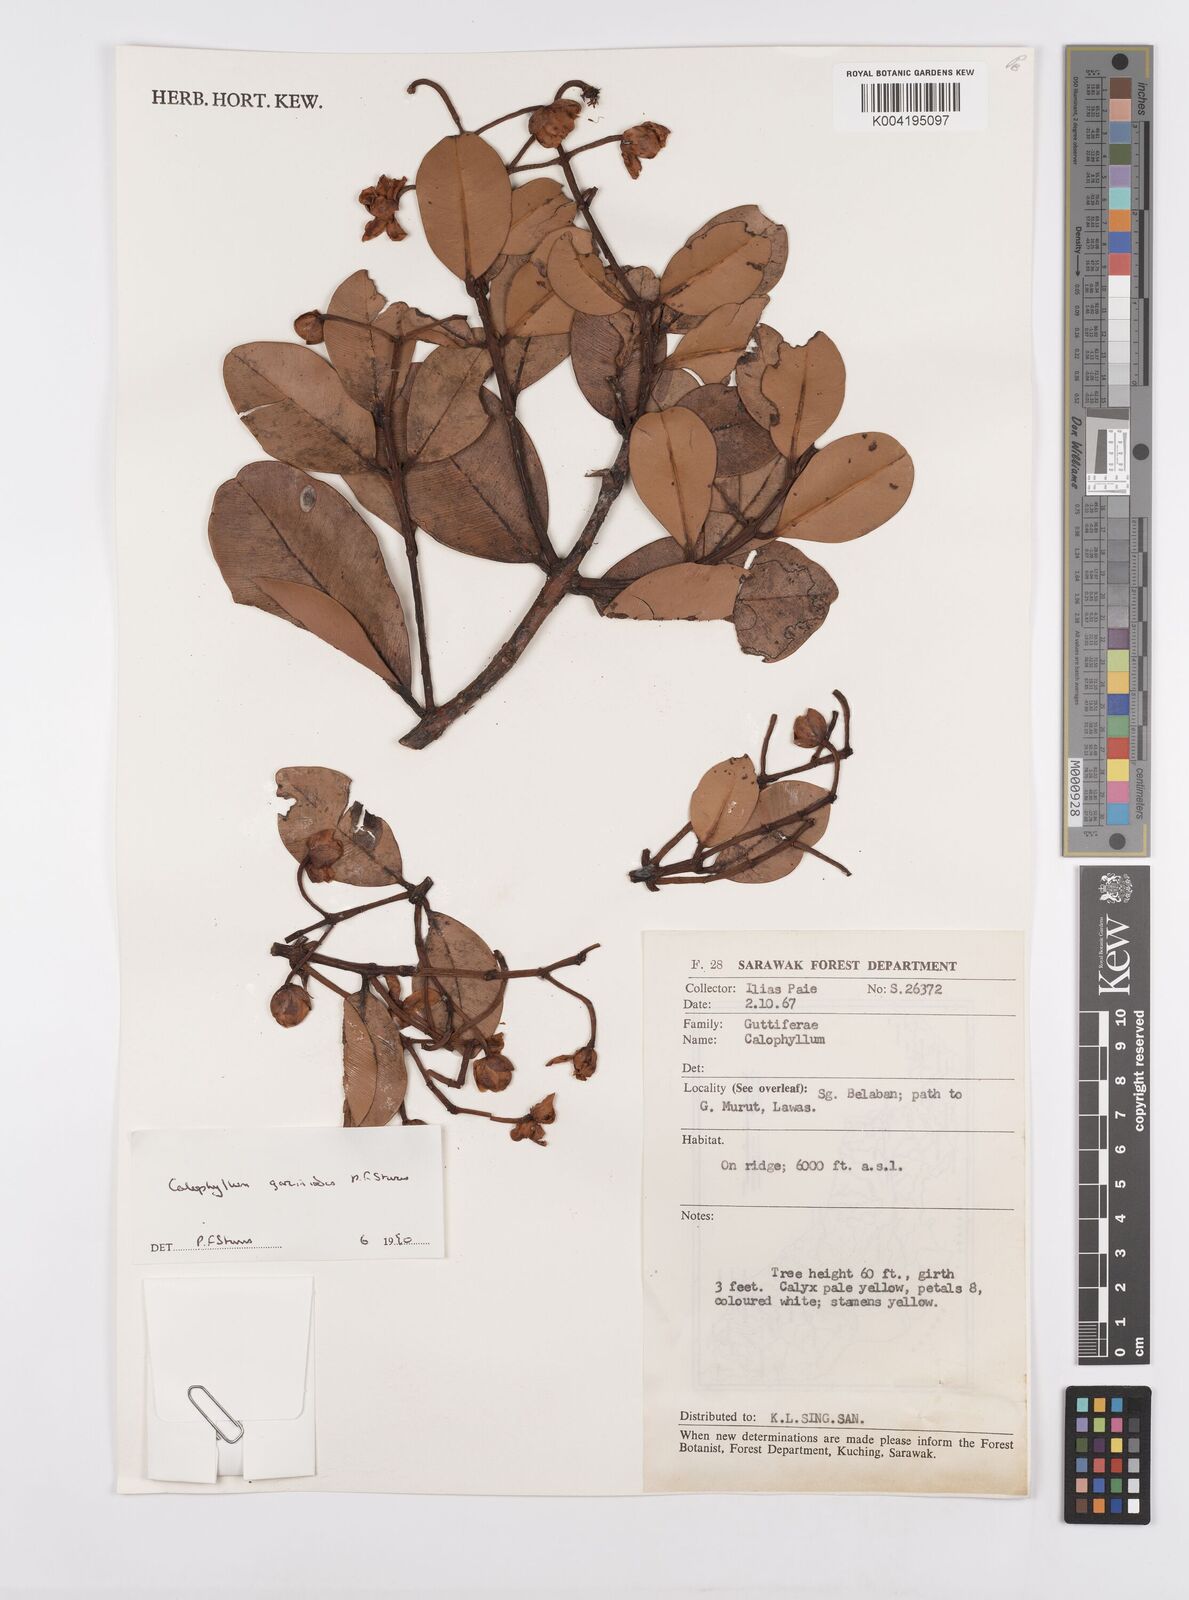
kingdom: Plantae
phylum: Tracheophyta
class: Magnoliopsida
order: Malpighiales
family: Calophyllaceae
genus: Calophyllum
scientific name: Calophyllum garcinioides
